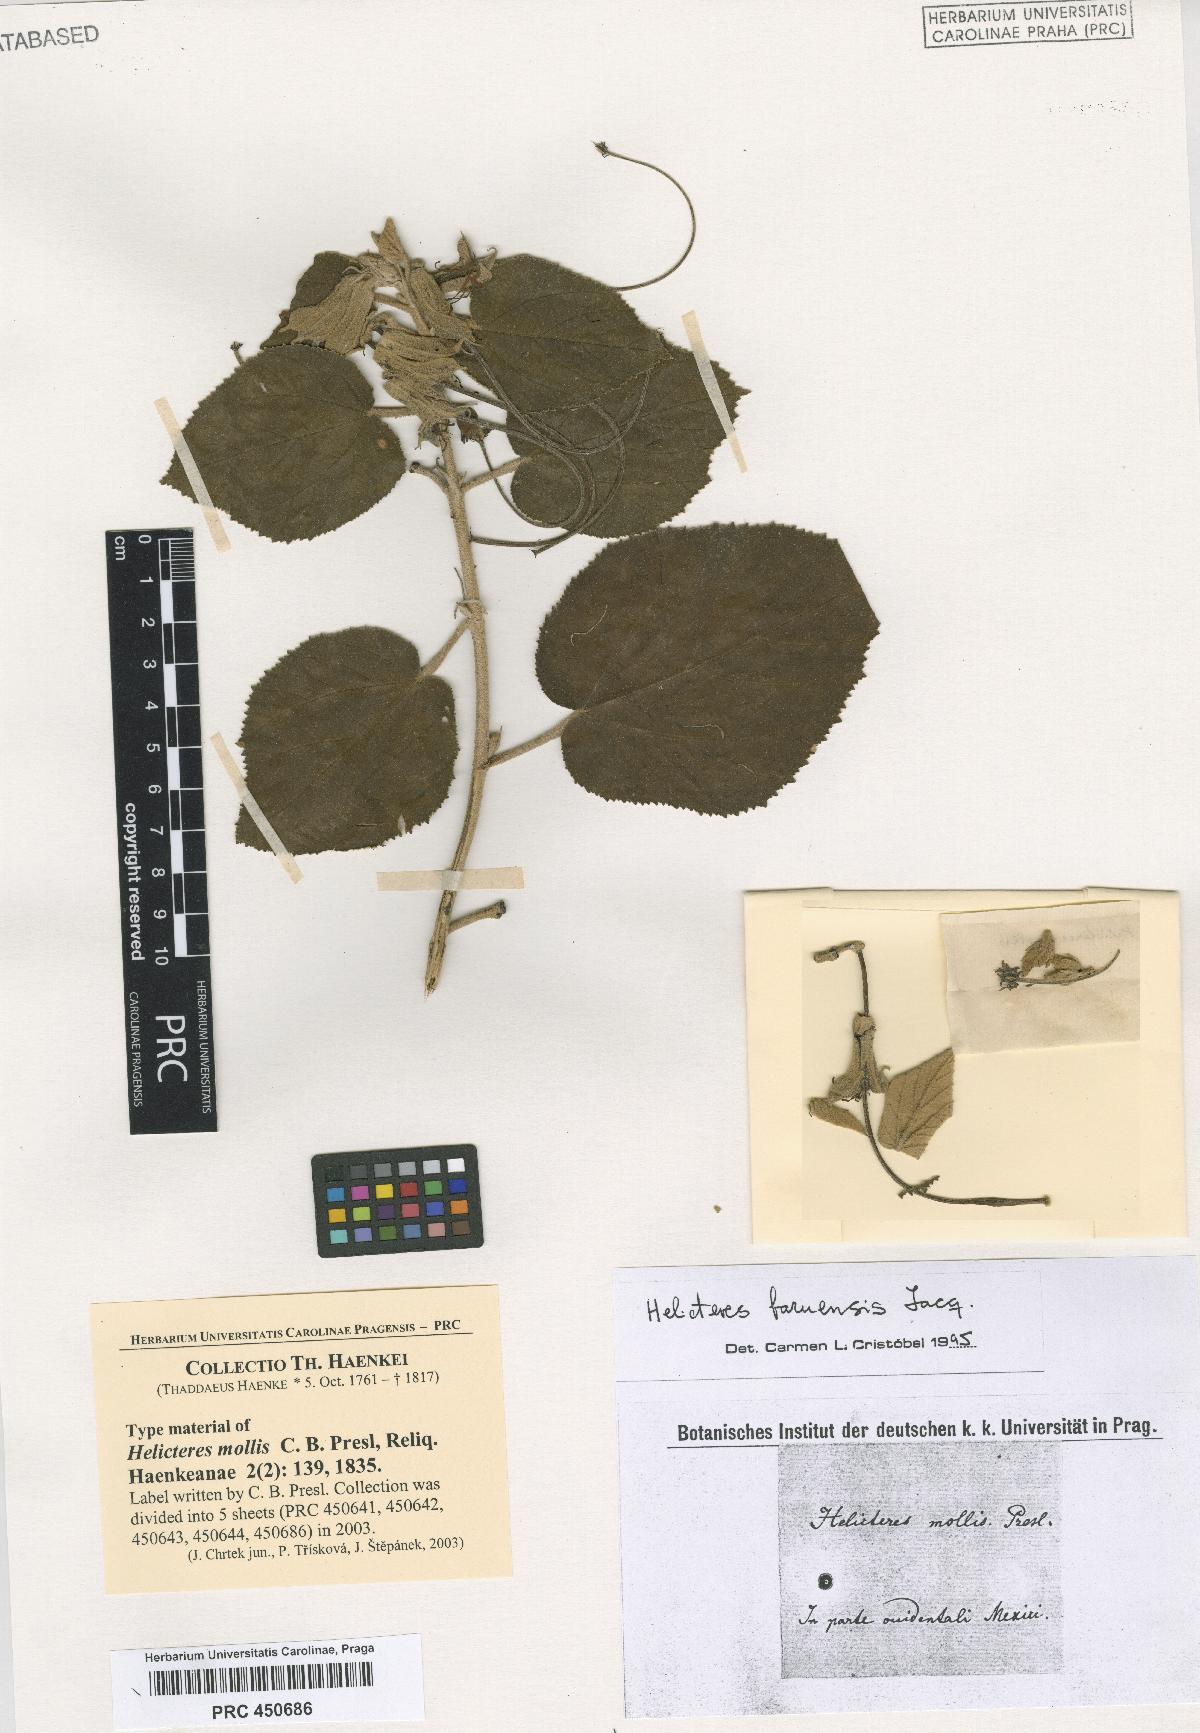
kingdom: Plantae
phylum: Tracheophyta
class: Magnoliopsida
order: Malvales
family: Malvaceae
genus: Helicteres
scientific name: Helicteres baruensis
